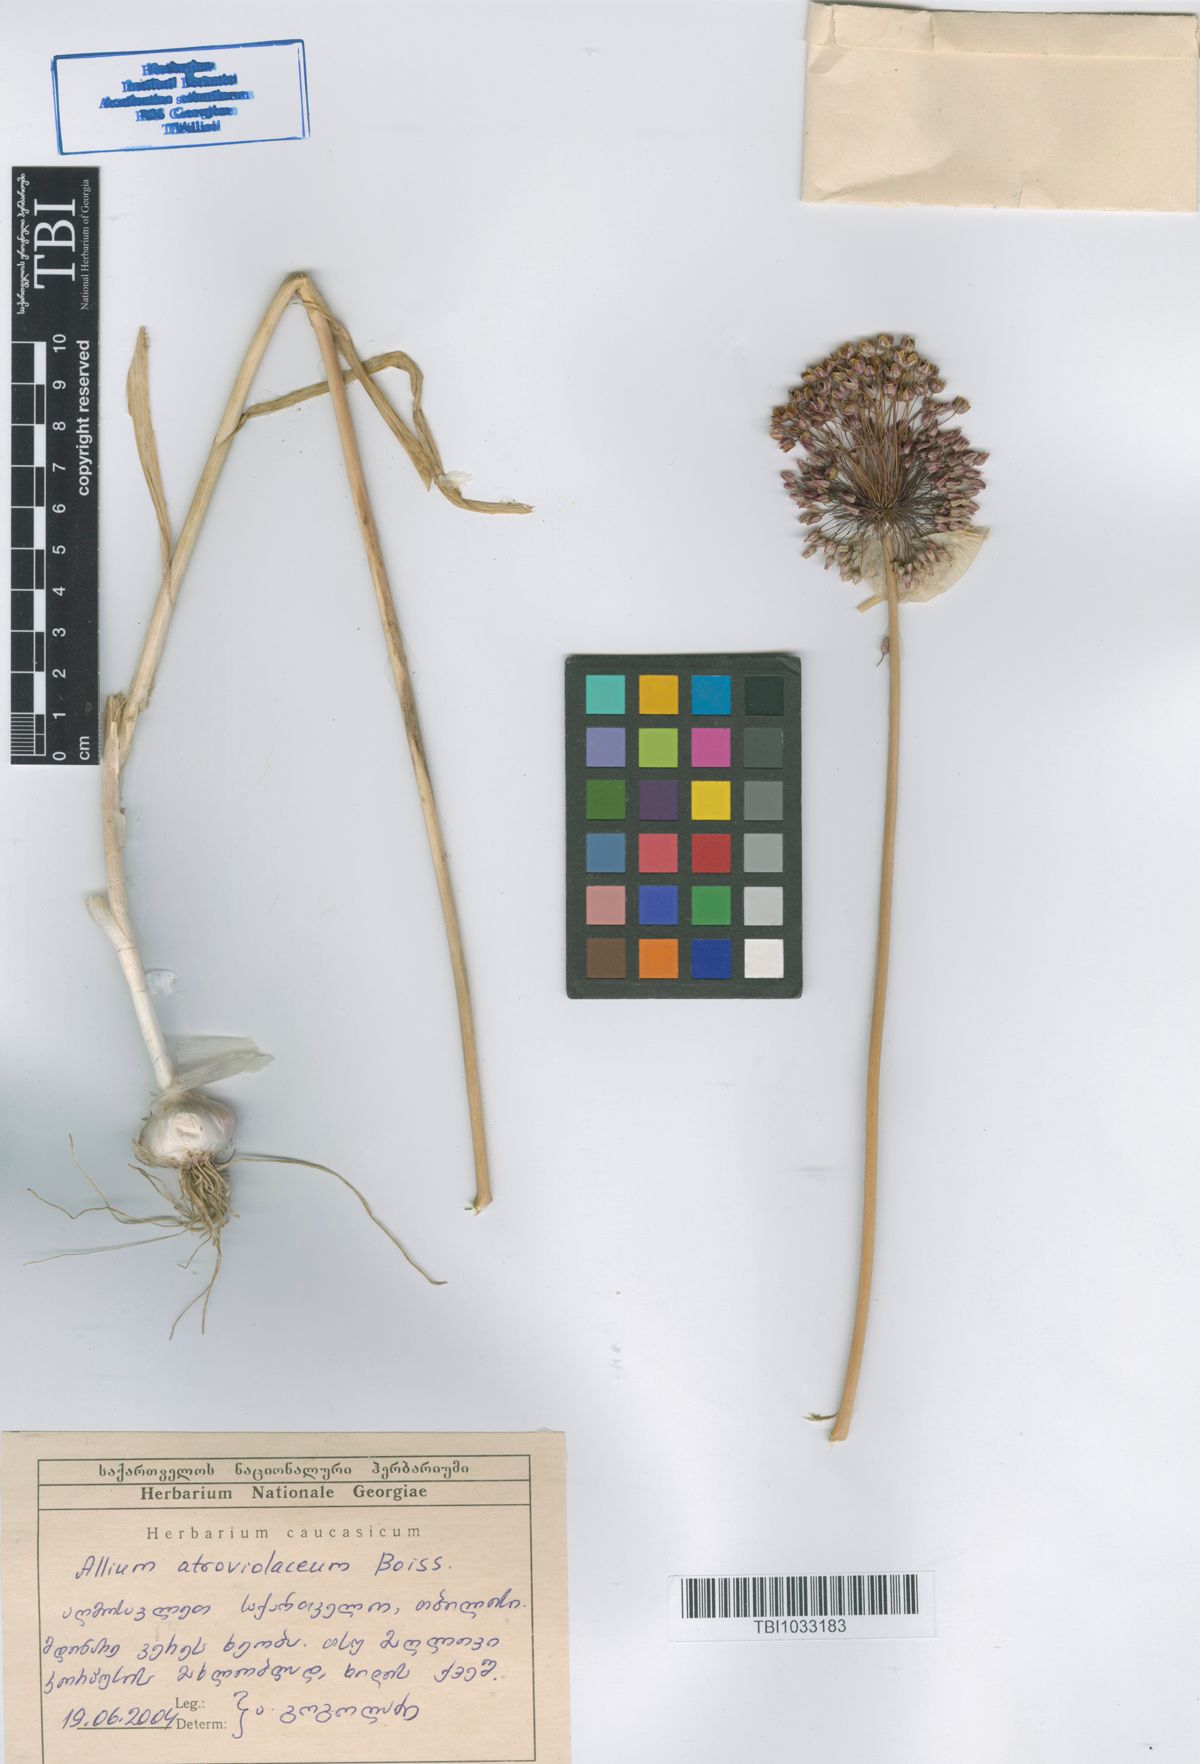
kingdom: Plantae
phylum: Tracheophyta
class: Liliopsida
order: Asparagales
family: Amaryllidaceae
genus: Allium
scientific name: Allium atroviolaceum
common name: Broadleaf wild leek
